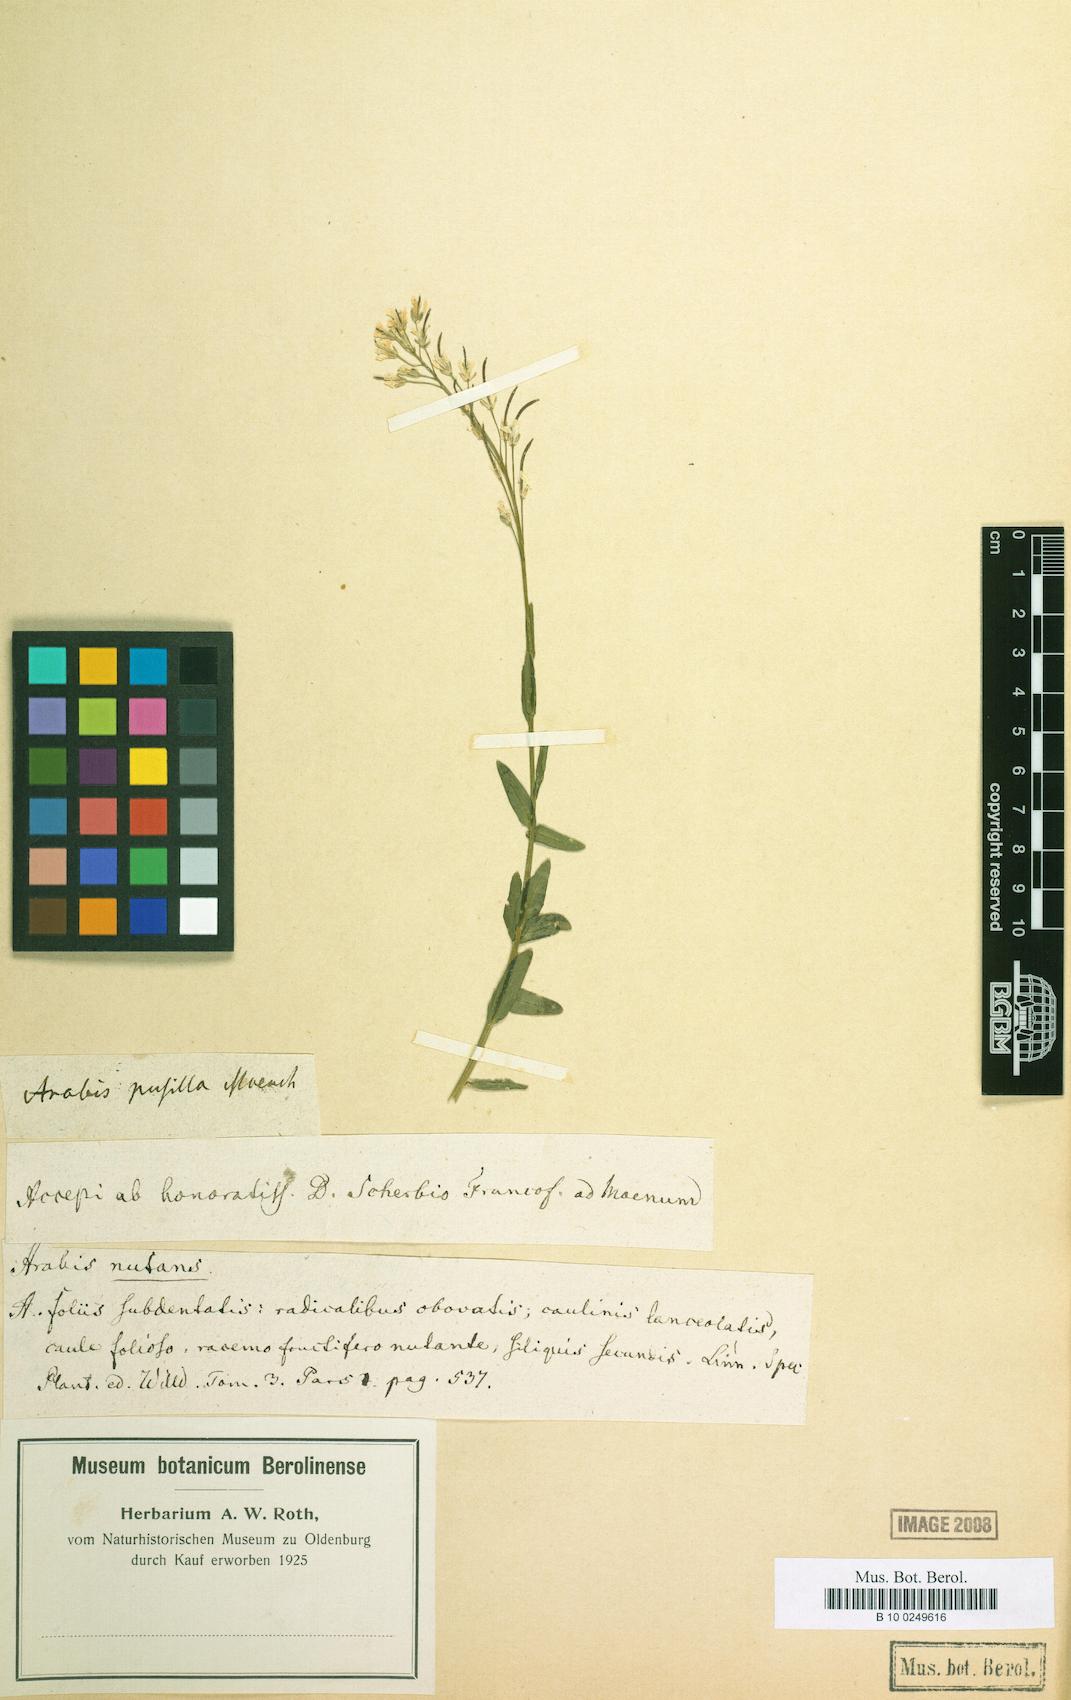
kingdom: Plantae
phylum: Tracheophyta
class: Magnoliopsida
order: Brassicales
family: Brassicaceae
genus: Arabis
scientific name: Arabis pumila
